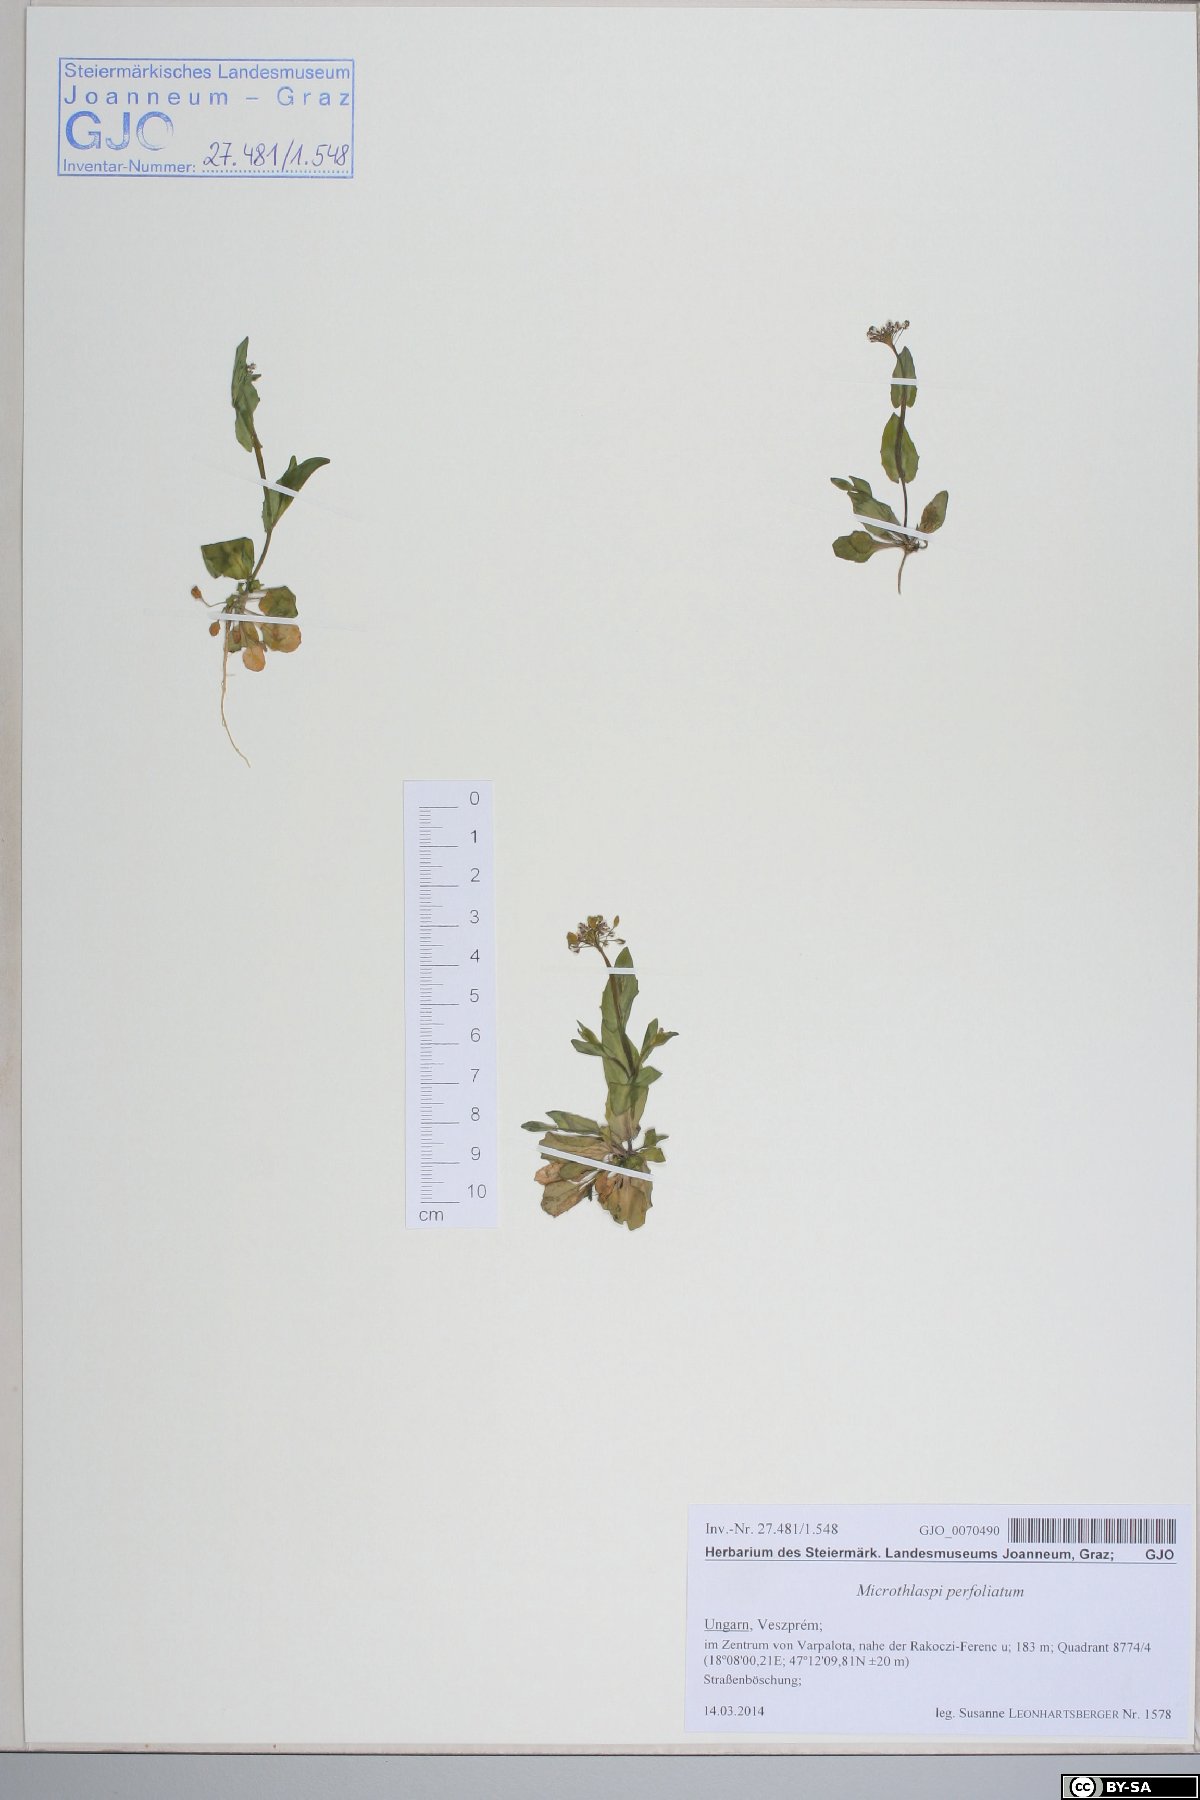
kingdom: Plantae
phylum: Tracheophyta
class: Magnoliopsida
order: Brassicales
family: Brassicaceae
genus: Noccaea
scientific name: Noccaea perfoliata
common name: Perfoliate pennycress
